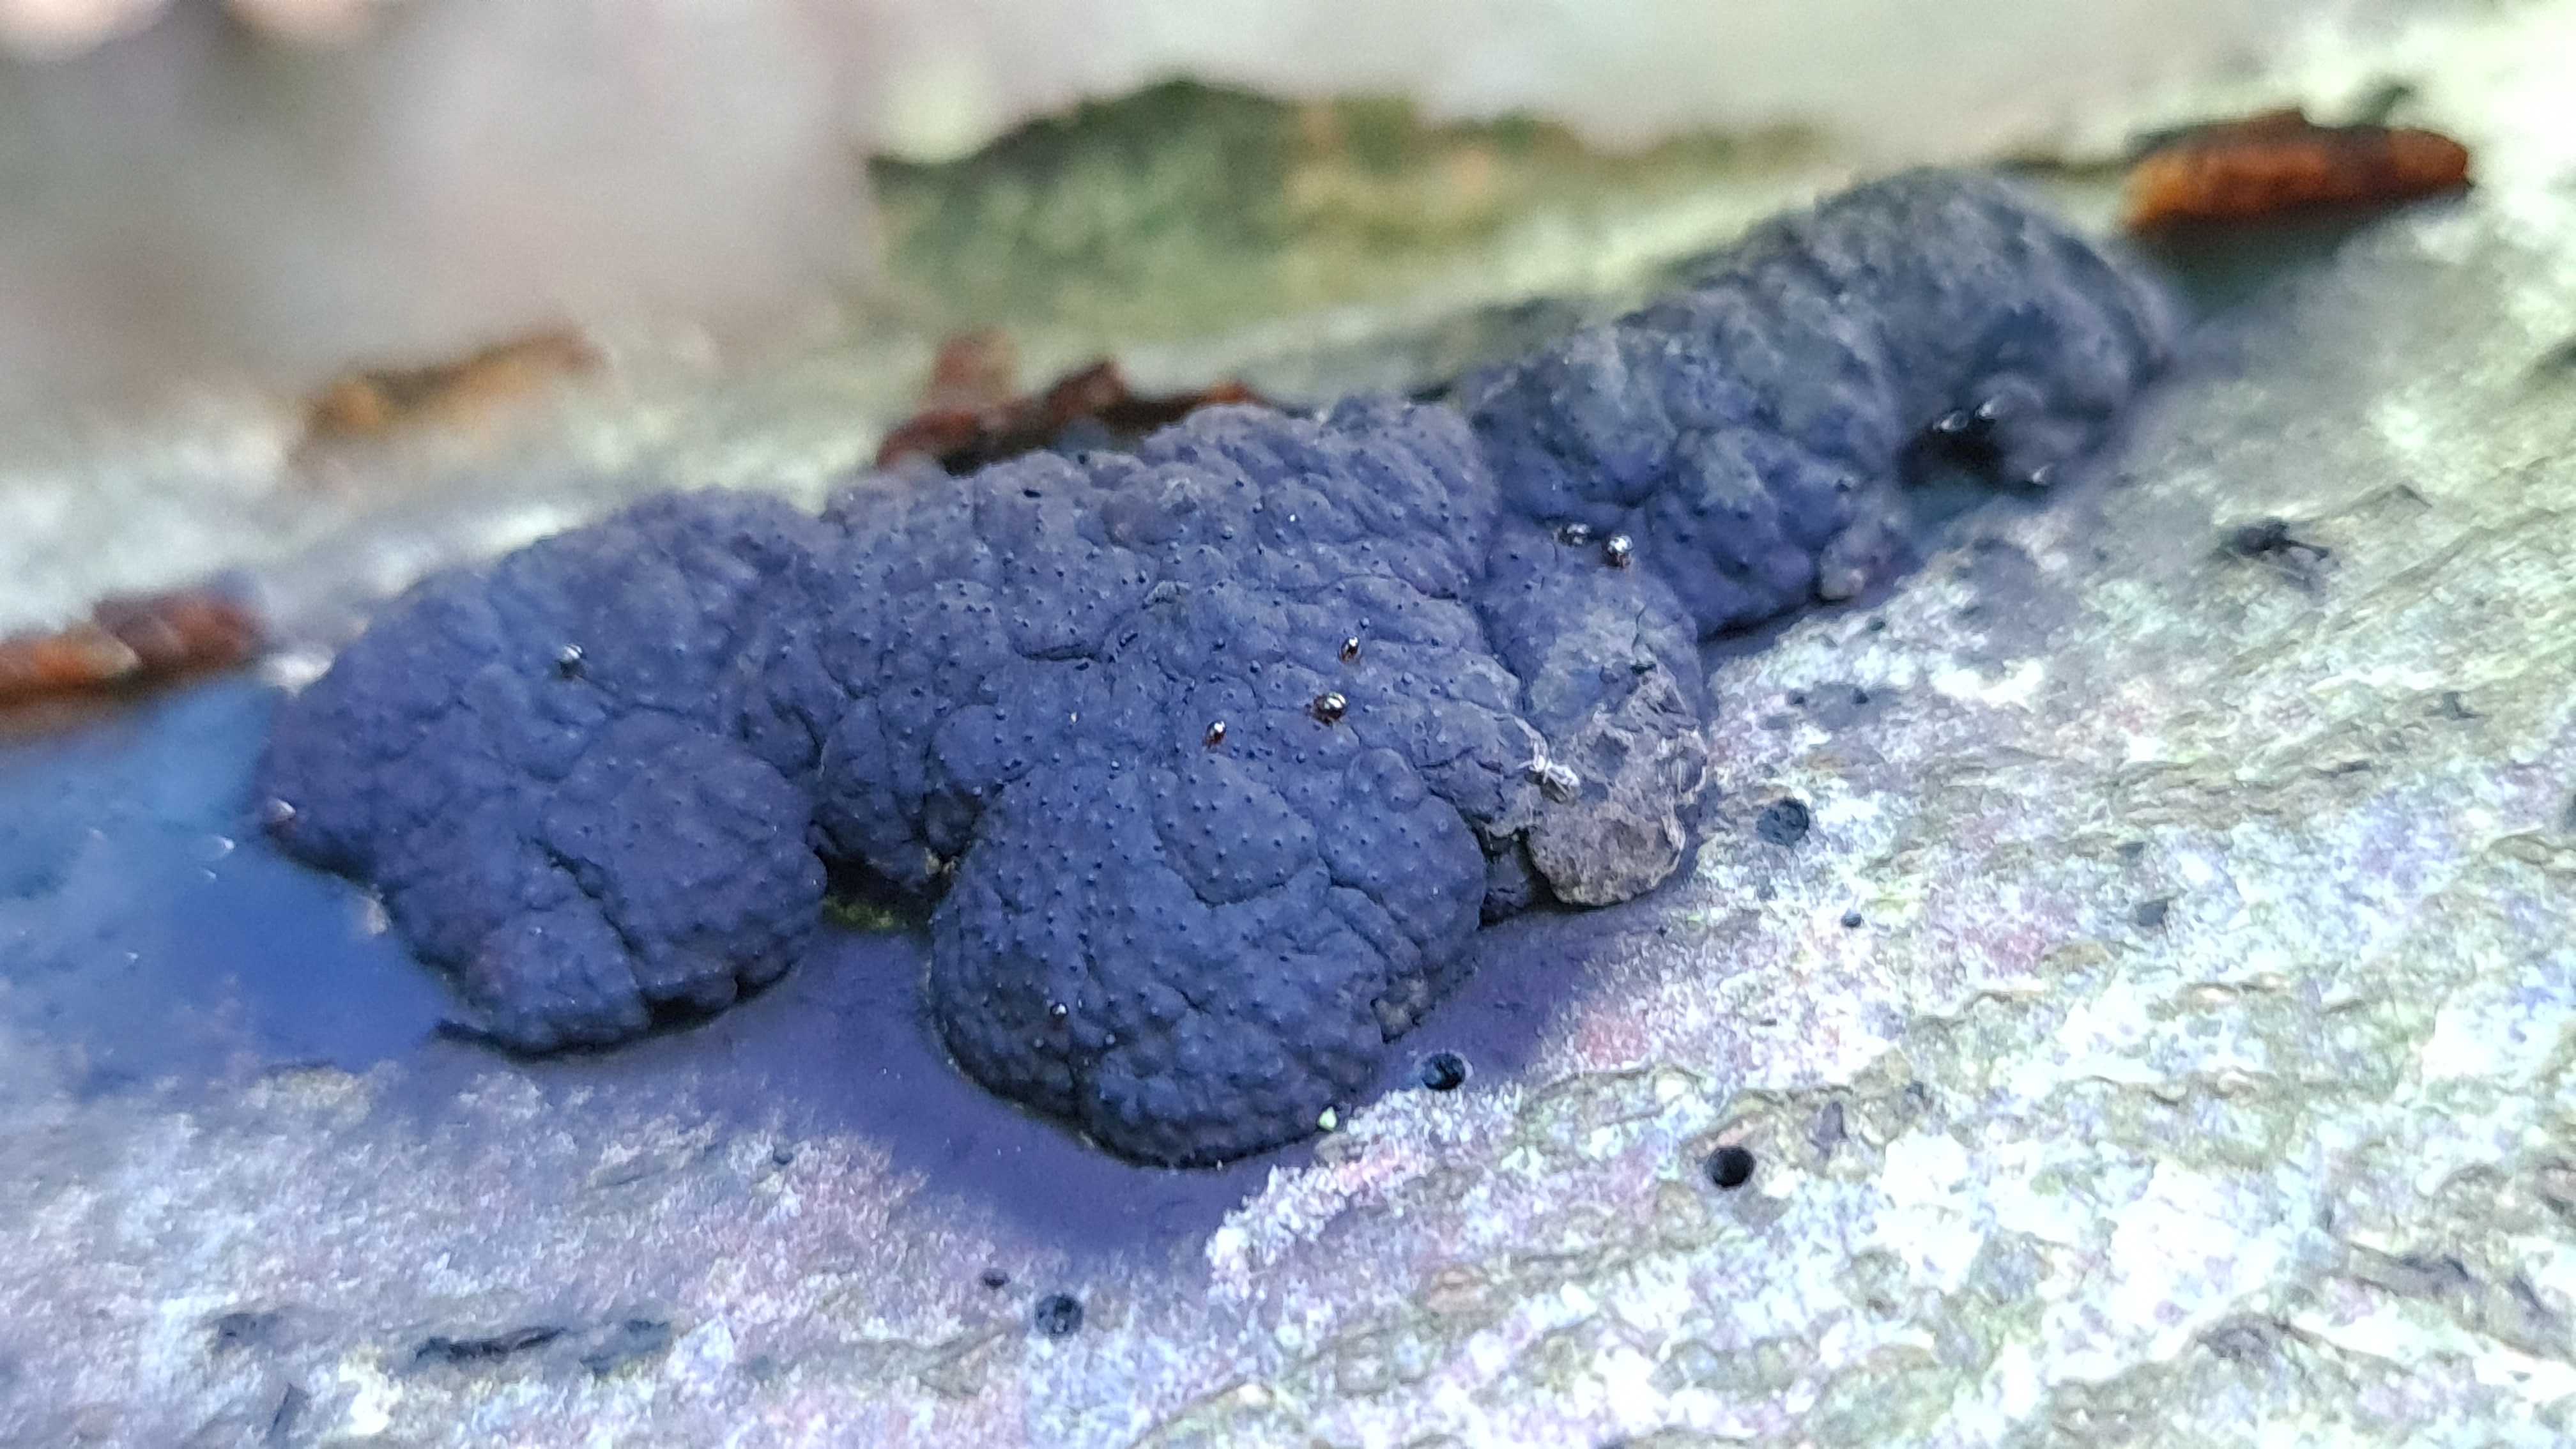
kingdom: Fungi
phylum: Ascomycota
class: Sordariomycetes
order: Xylariales
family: Hypoxylaceae
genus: Jackrogersella
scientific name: Jackrogersella cohaerens
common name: sammenflydende kulbær
